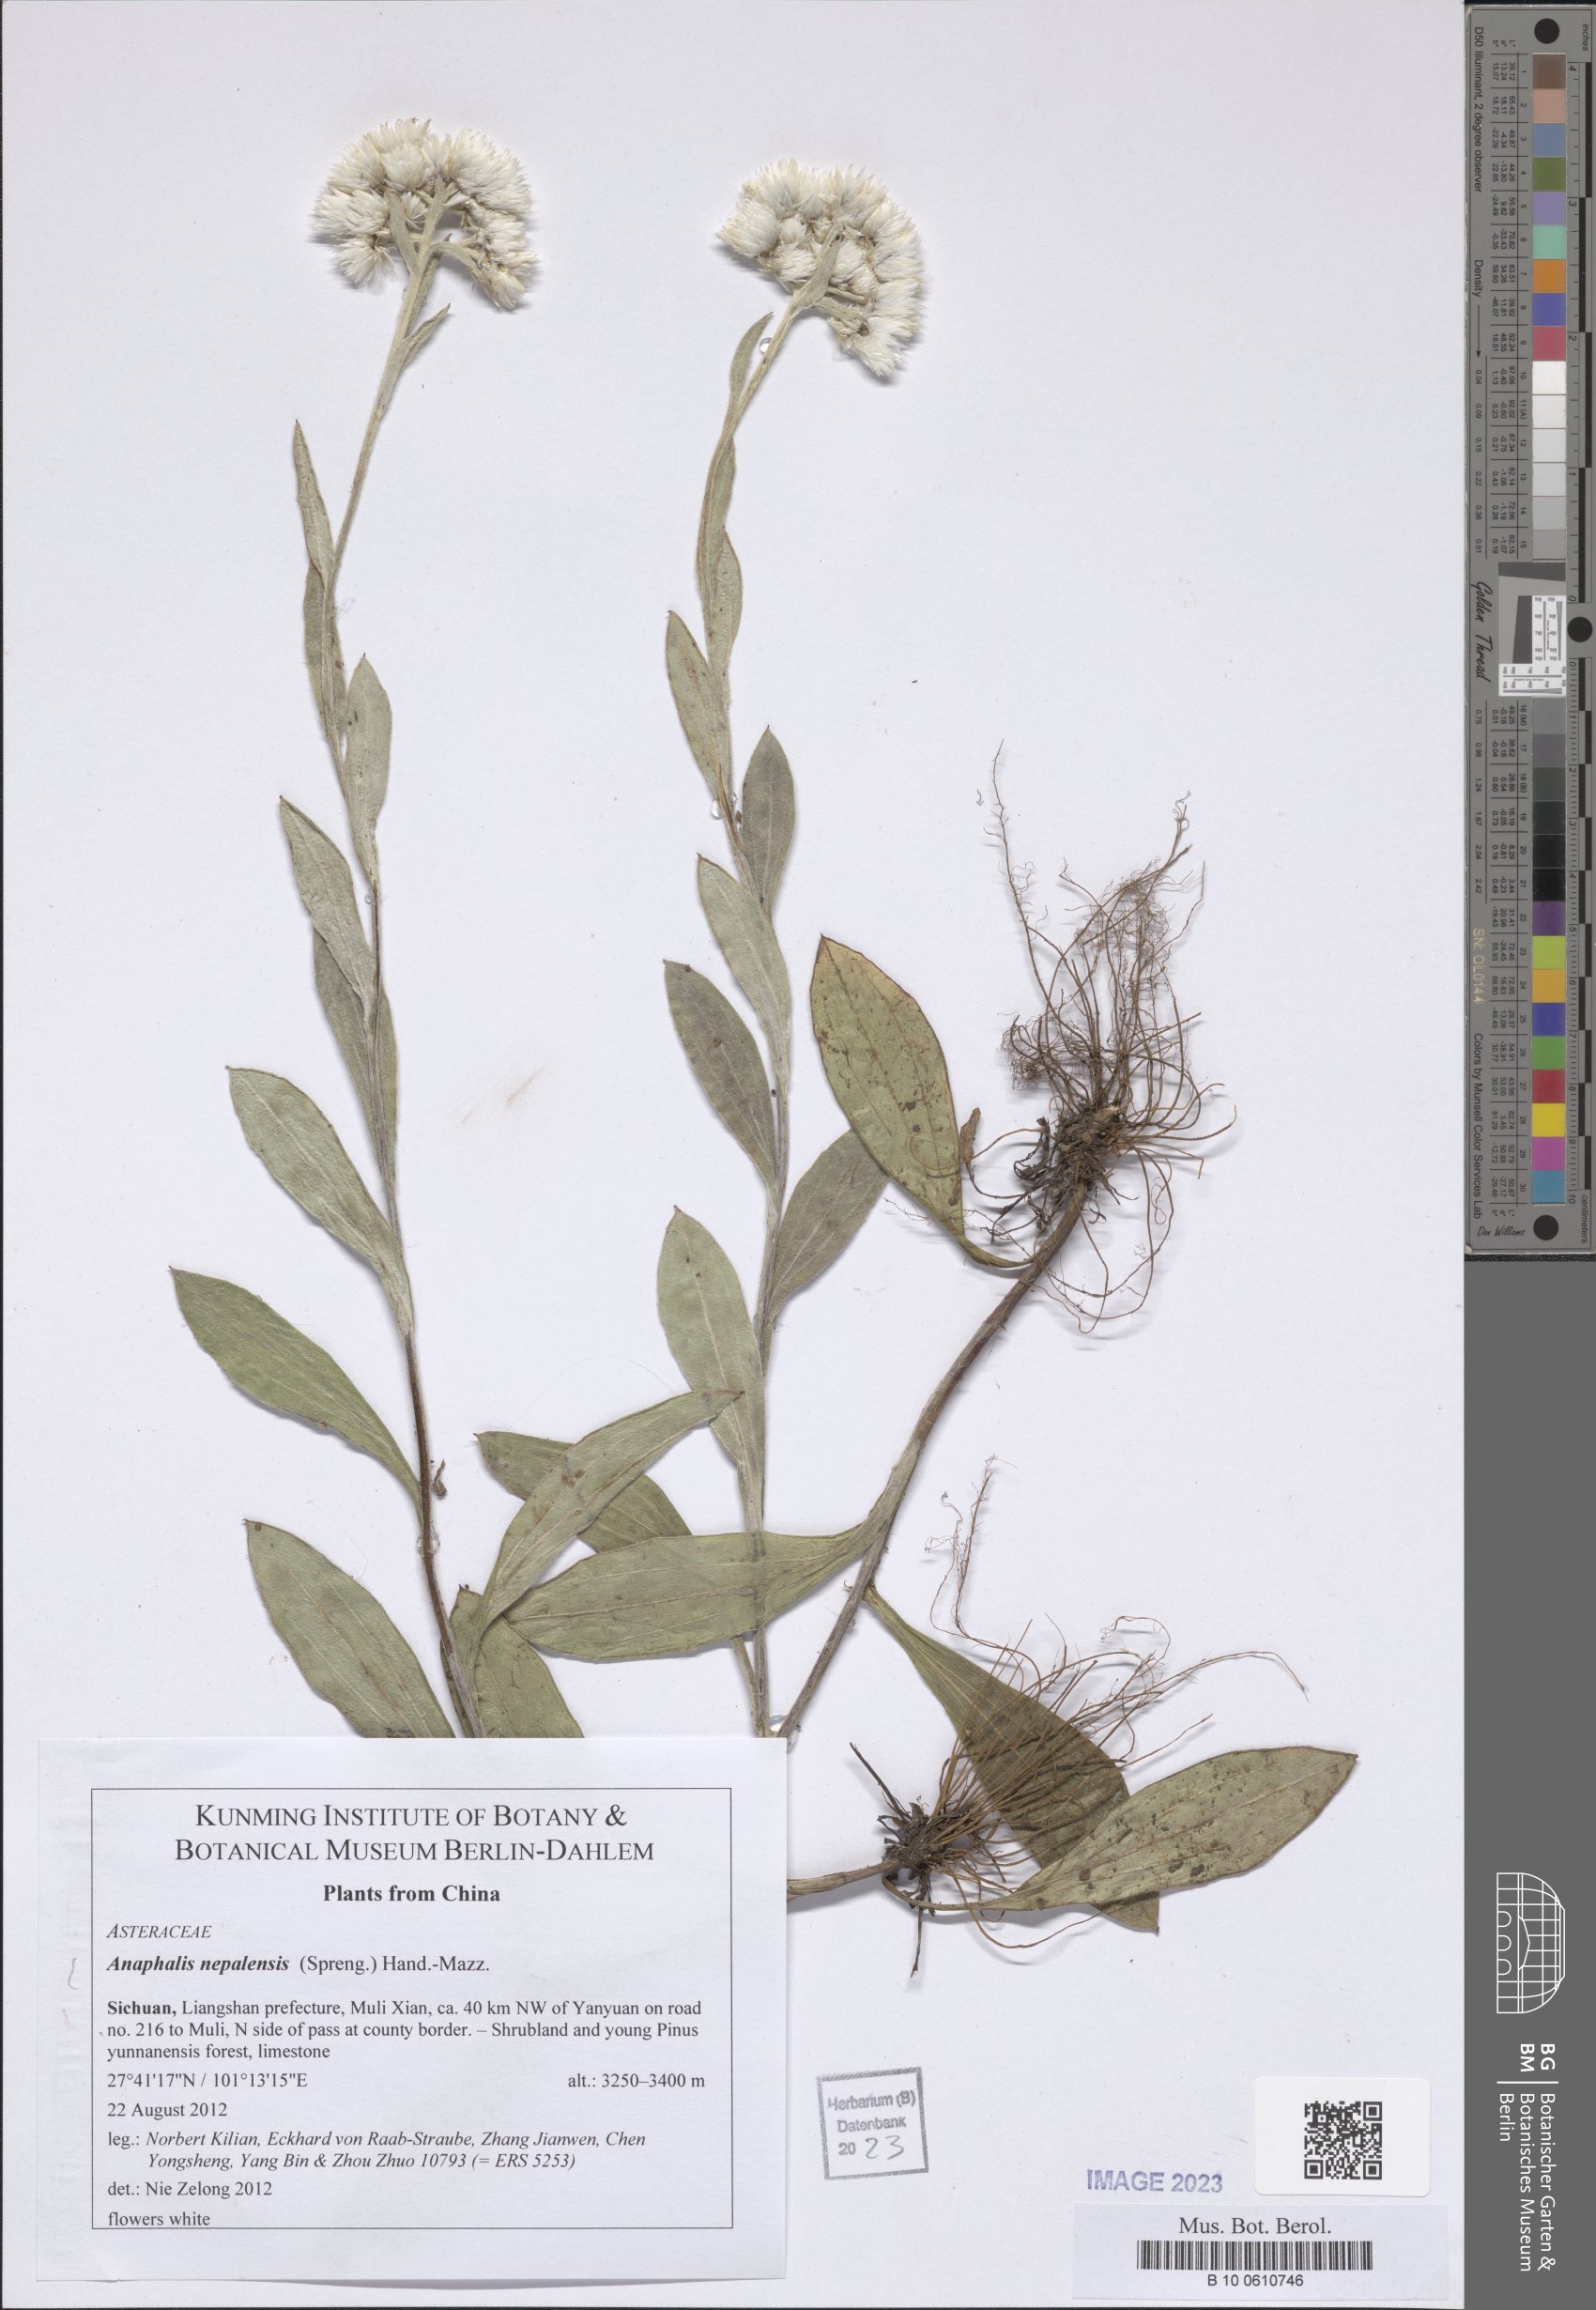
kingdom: Plantae
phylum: Tracheophyta
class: Magnoliopsida
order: Asterales
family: Asteraceae
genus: Anaphalis
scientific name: Anaphalis nepalensis
